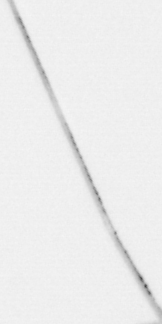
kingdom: Chromista
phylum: Ochrophyta
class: Bacillariophyceae
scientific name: Bacillariophyceae
